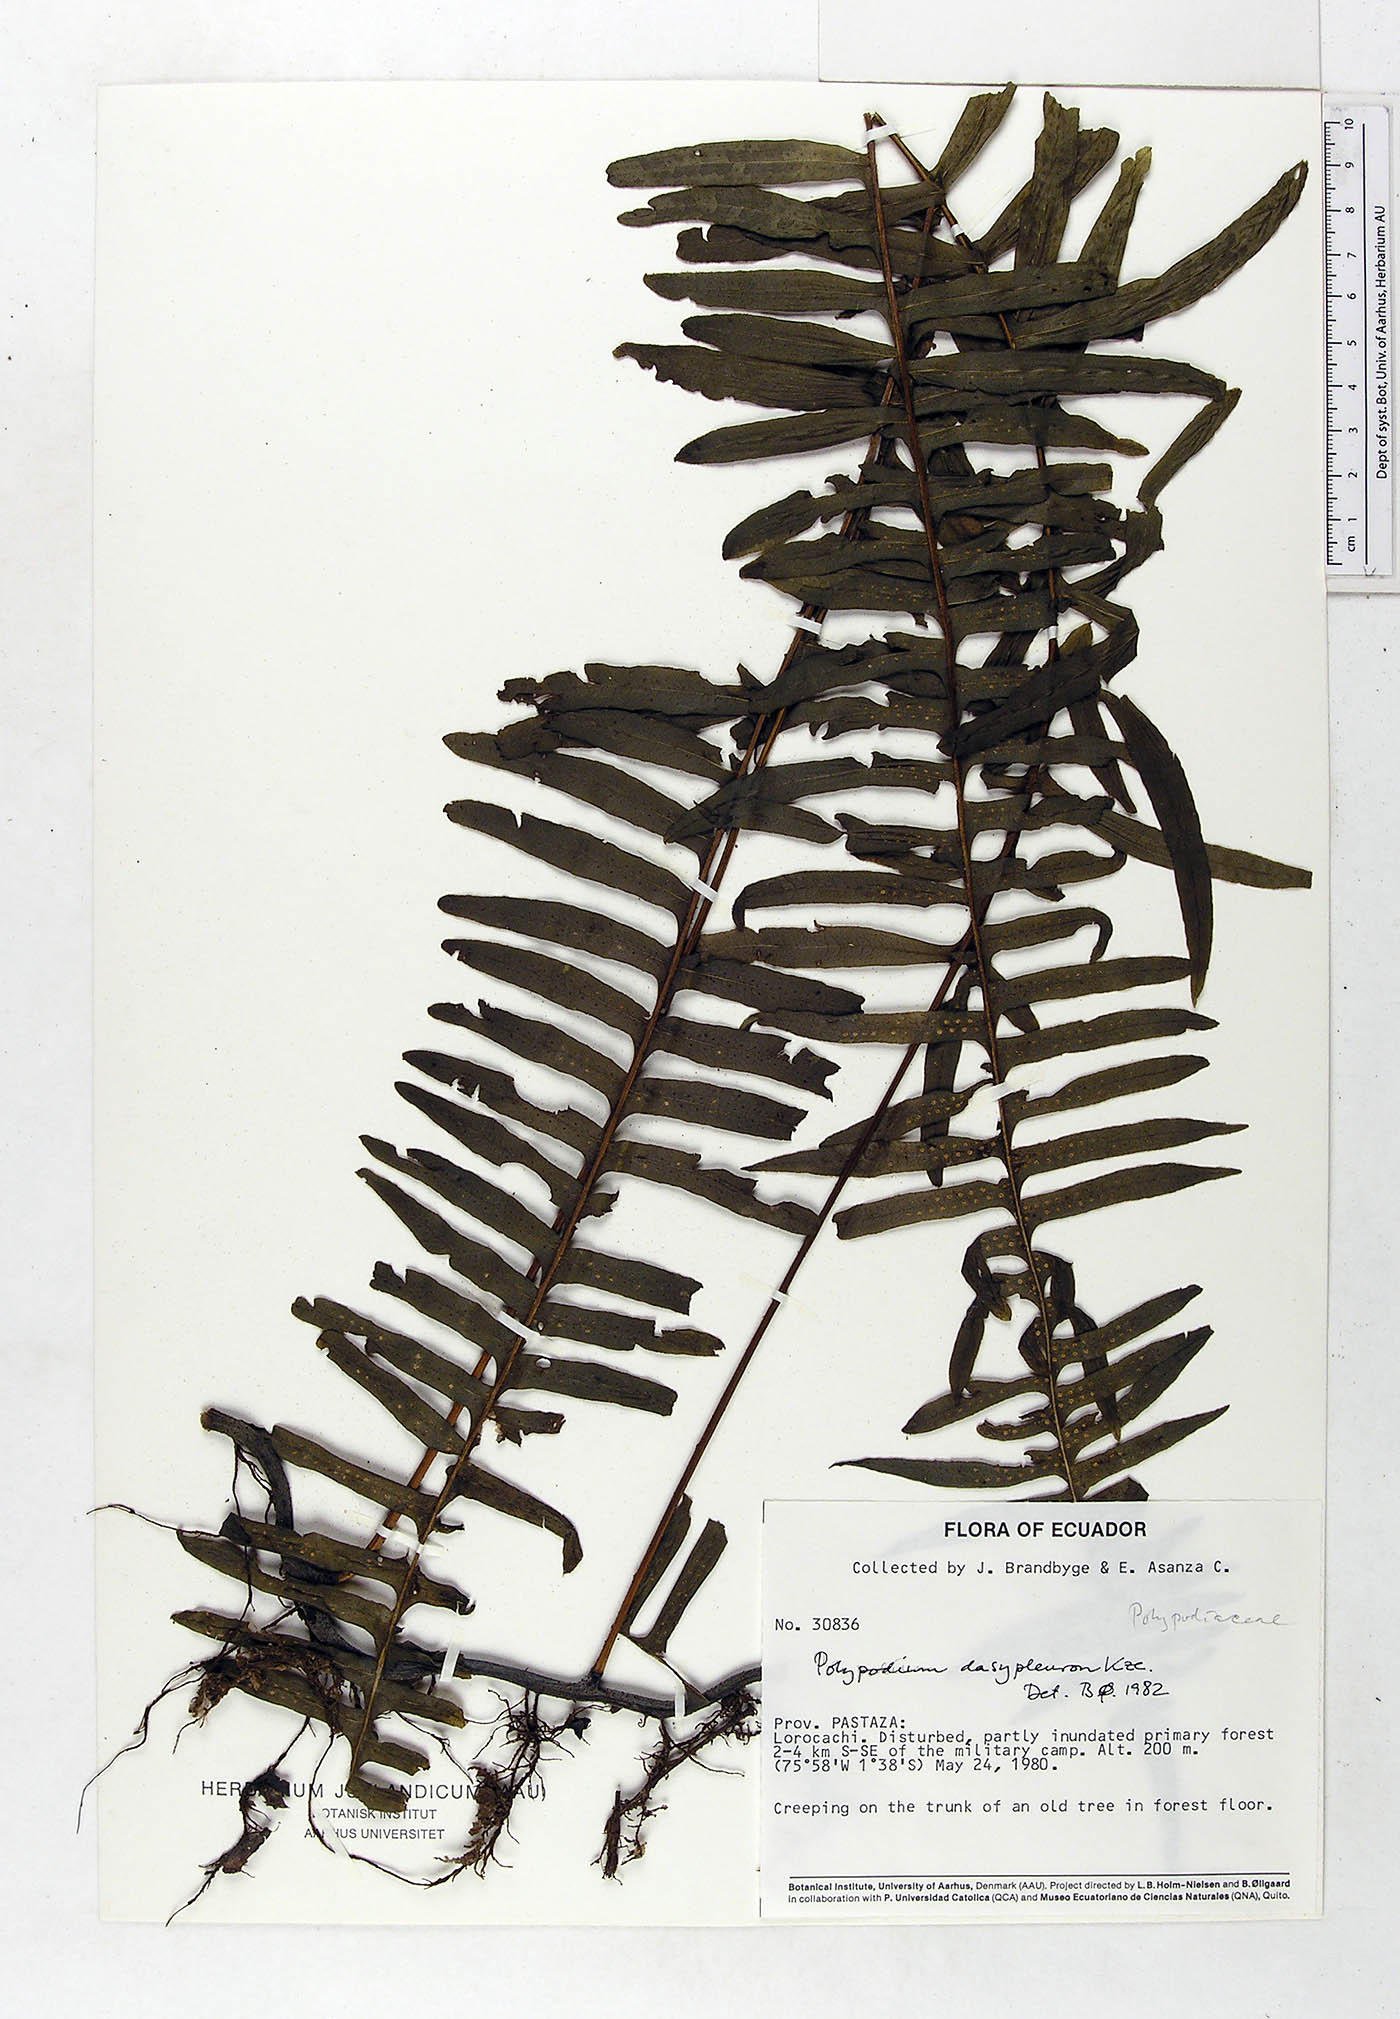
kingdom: Plantae
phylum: Tracheophyta
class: Polypodiopsida
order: Polypodiales
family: Polypodiaceae
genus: Serpocaulon
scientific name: Serpocaulon dasypleuron
